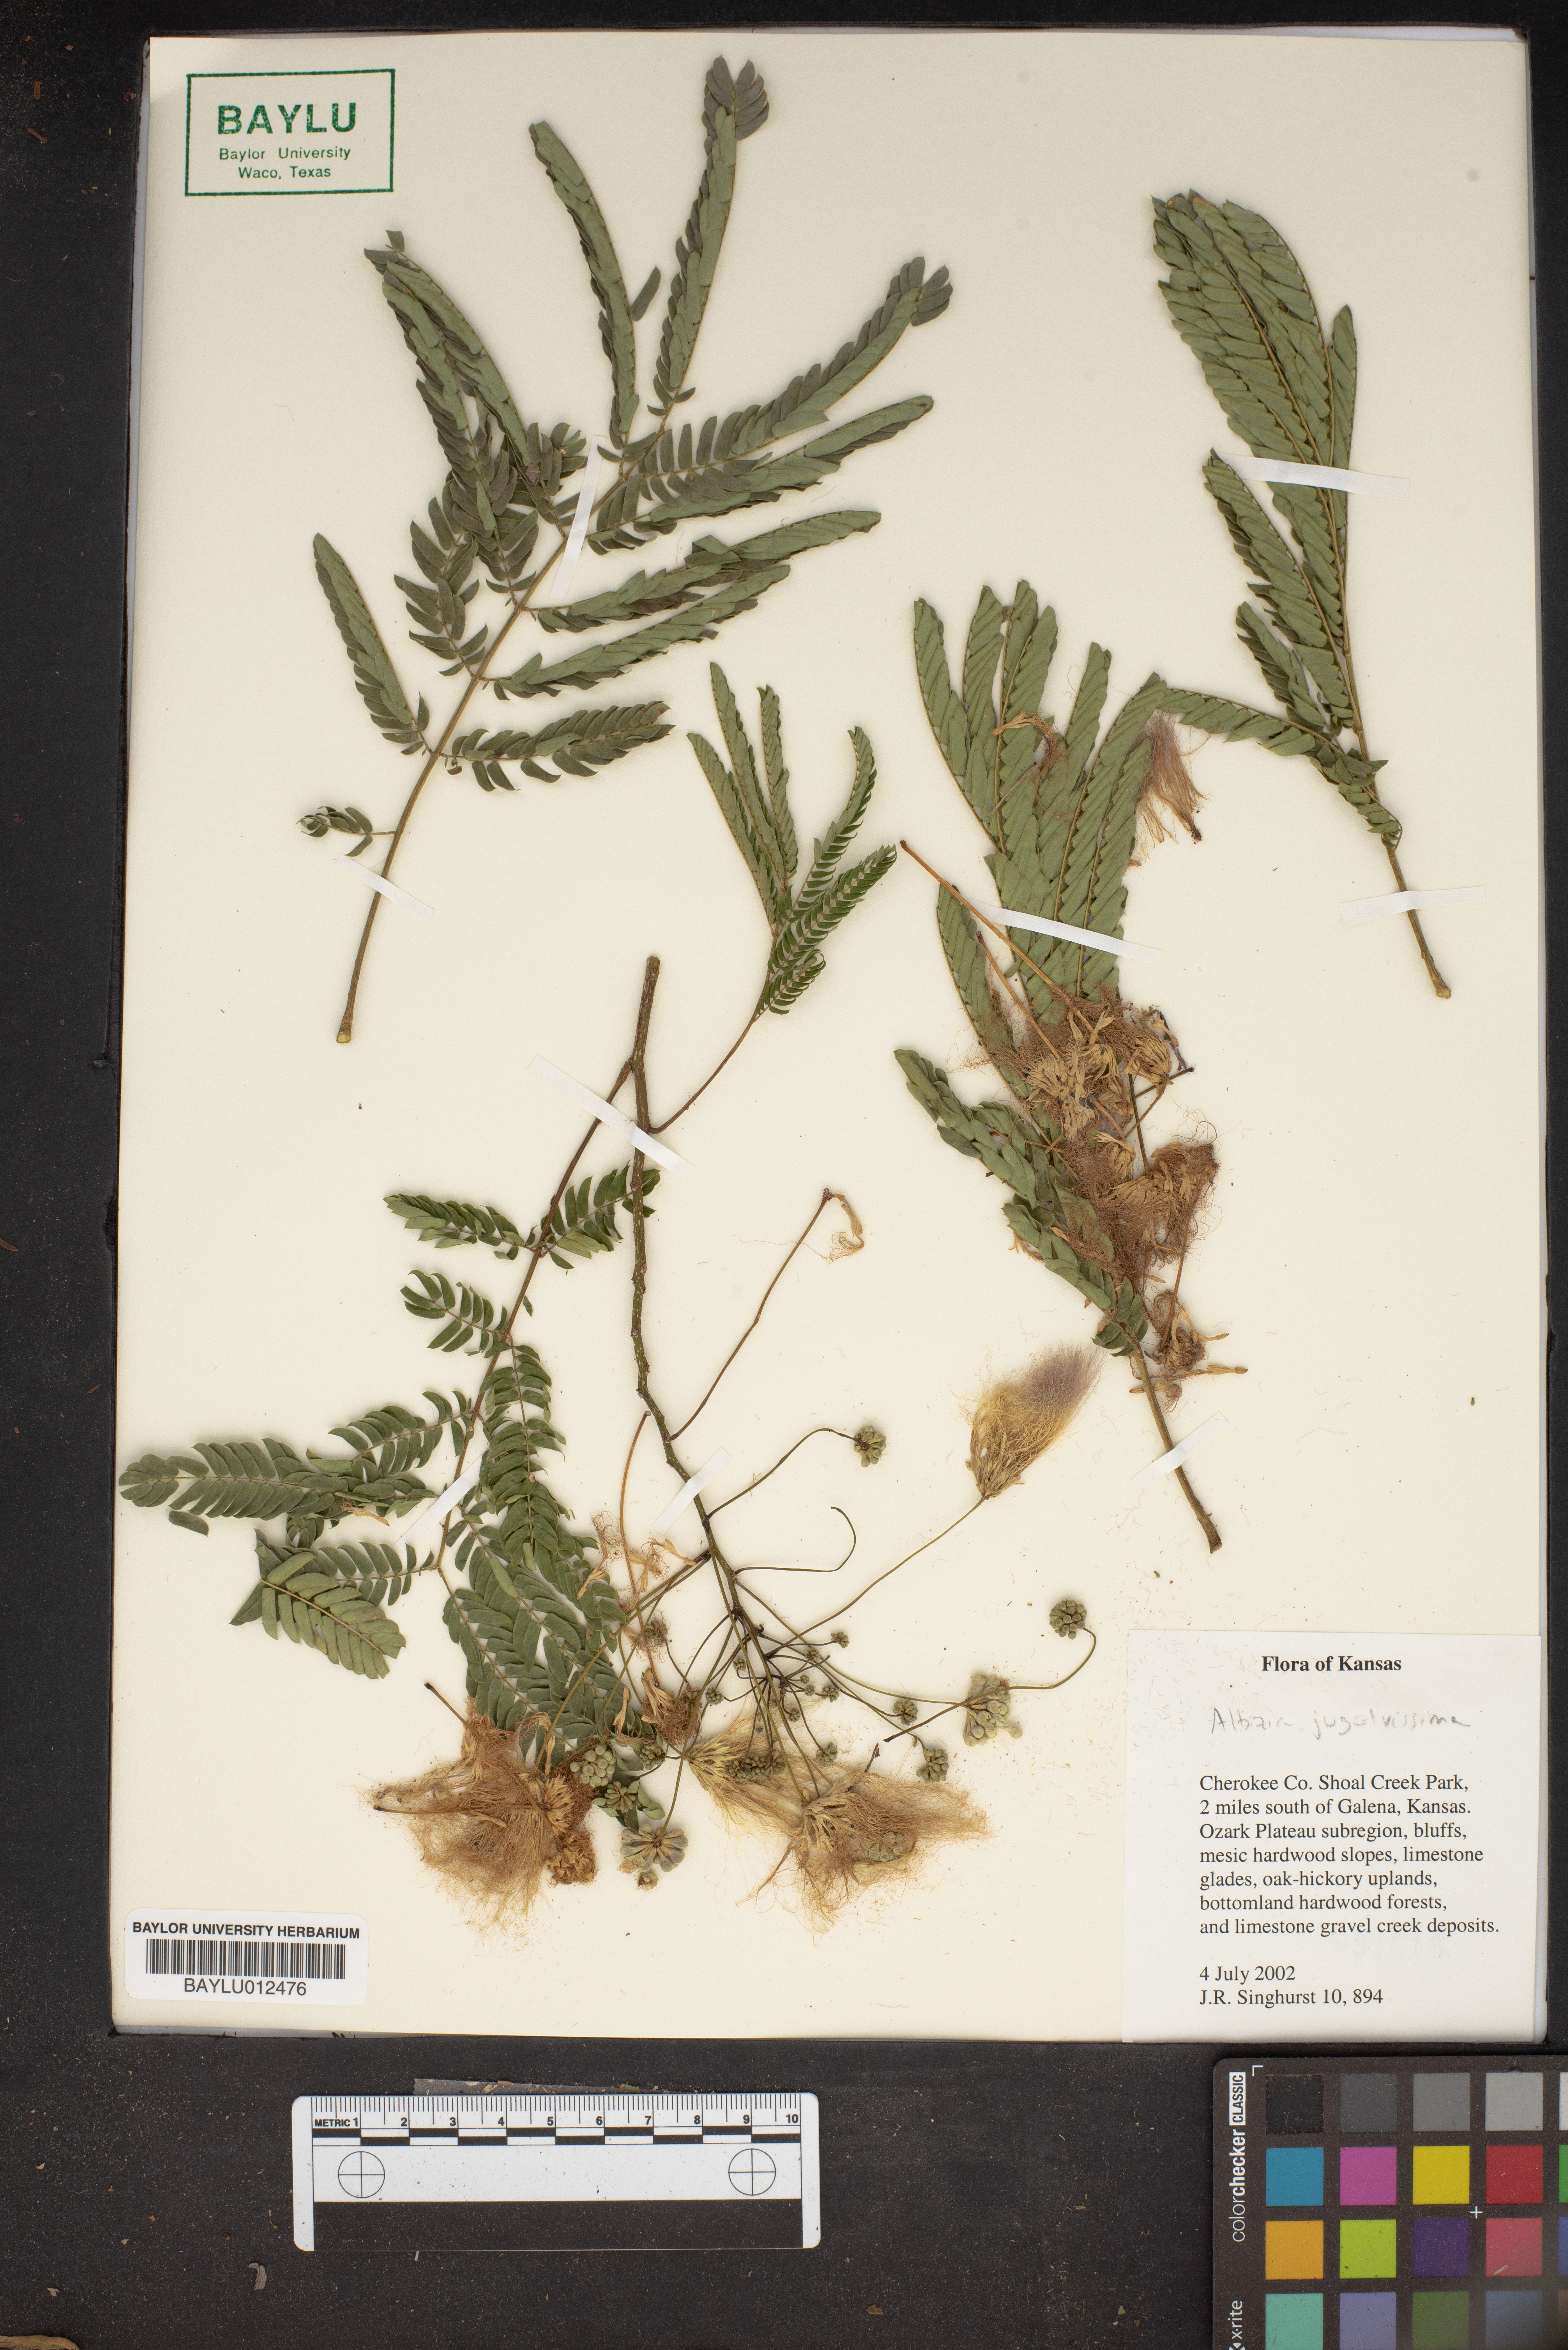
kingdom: Plantae
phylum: Tracheophyta
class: Magnoliopsida
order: Fabales
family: Fabaceae
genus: Albizia
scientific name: Albizia julibrissin
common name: Silktree
